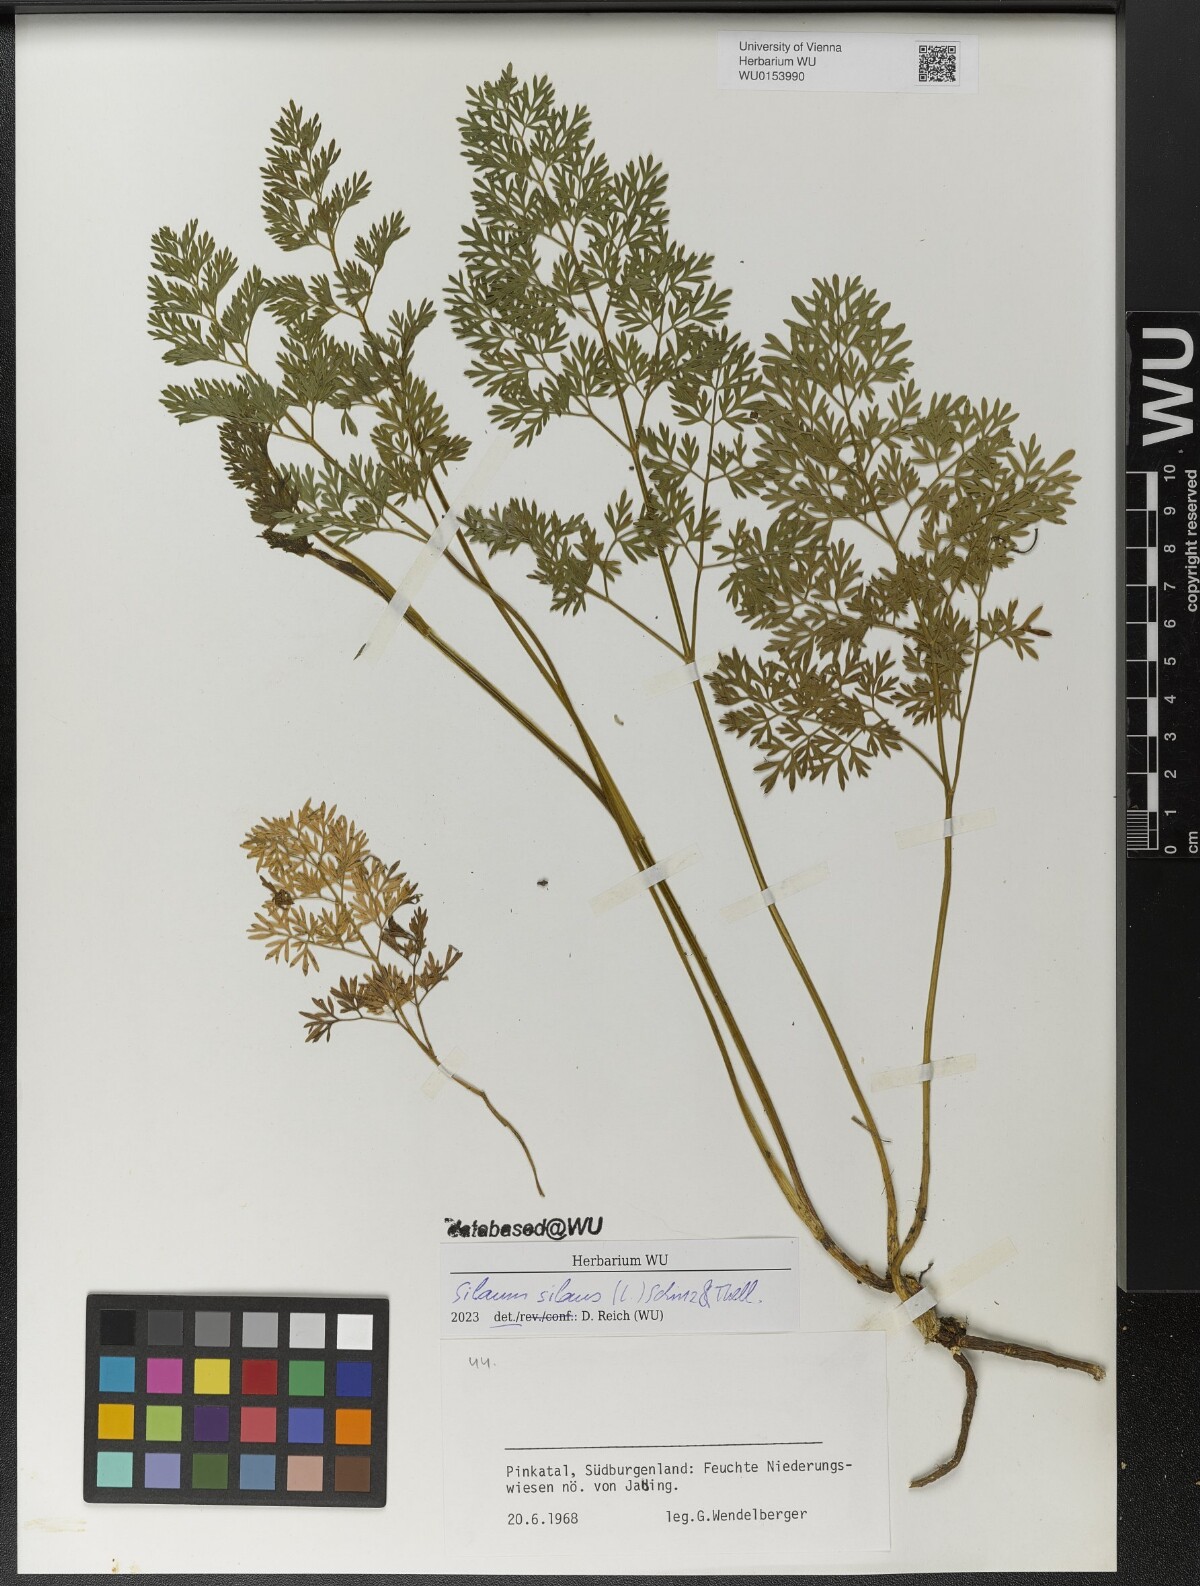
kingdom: Plantae
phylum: Tracheophyta
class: Magnoliopsida
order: Apiales
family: Apiaceae
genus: Silaum
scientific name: Silaum silaus
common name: Pepper-saxifrage
